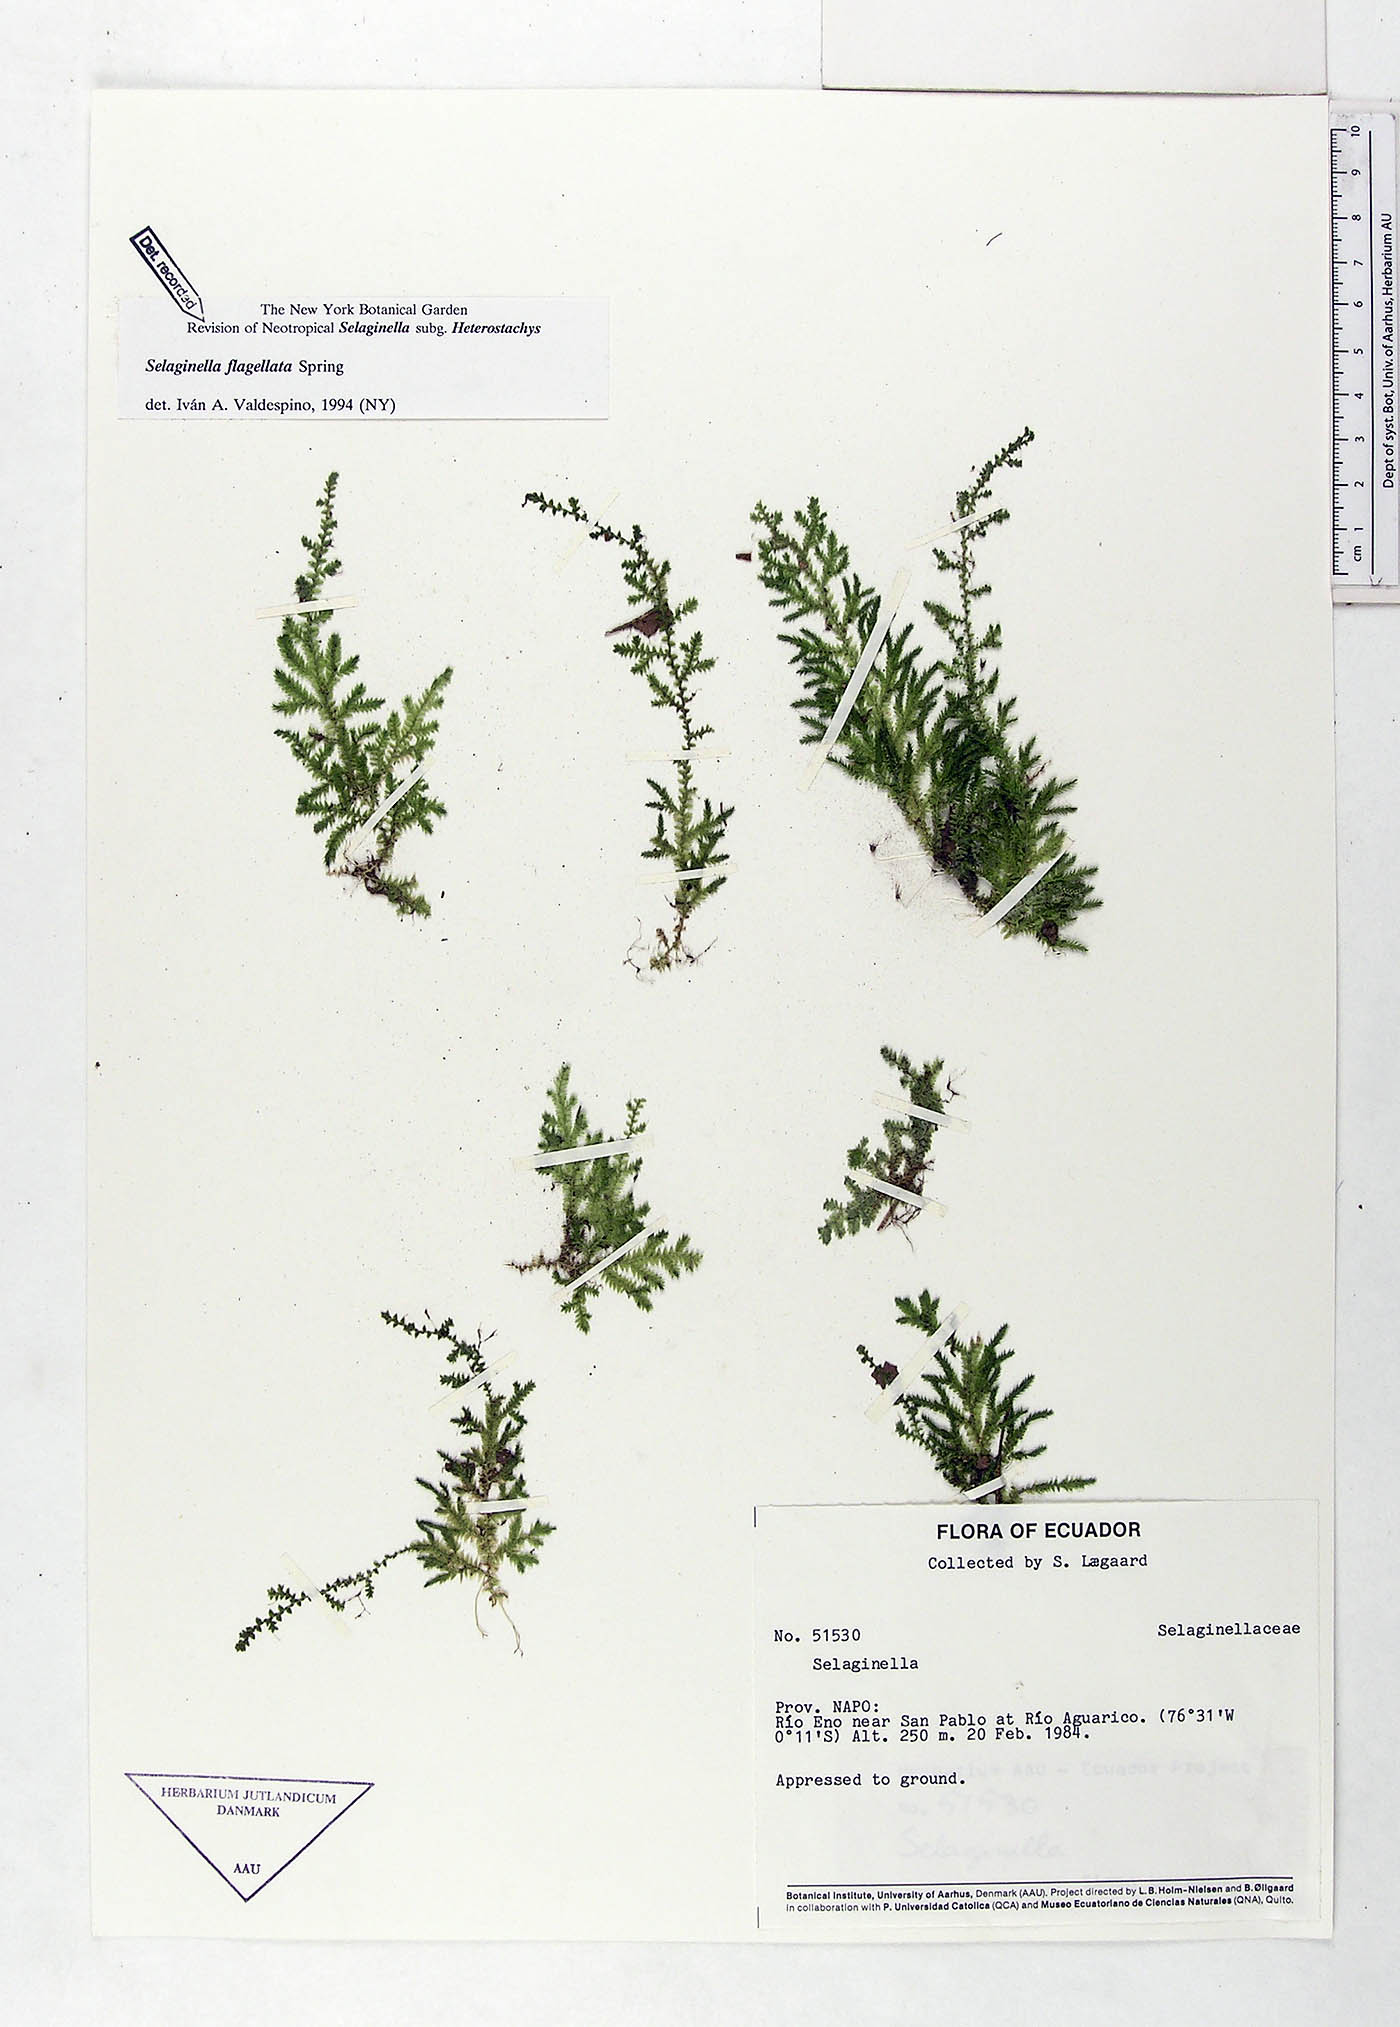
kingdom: Plantae
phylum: Tracheophyta
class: Lycopodiopsida
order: Selaginellales
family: Selaginellaceae
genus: Selaginella
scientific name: Selaginella flagellata
